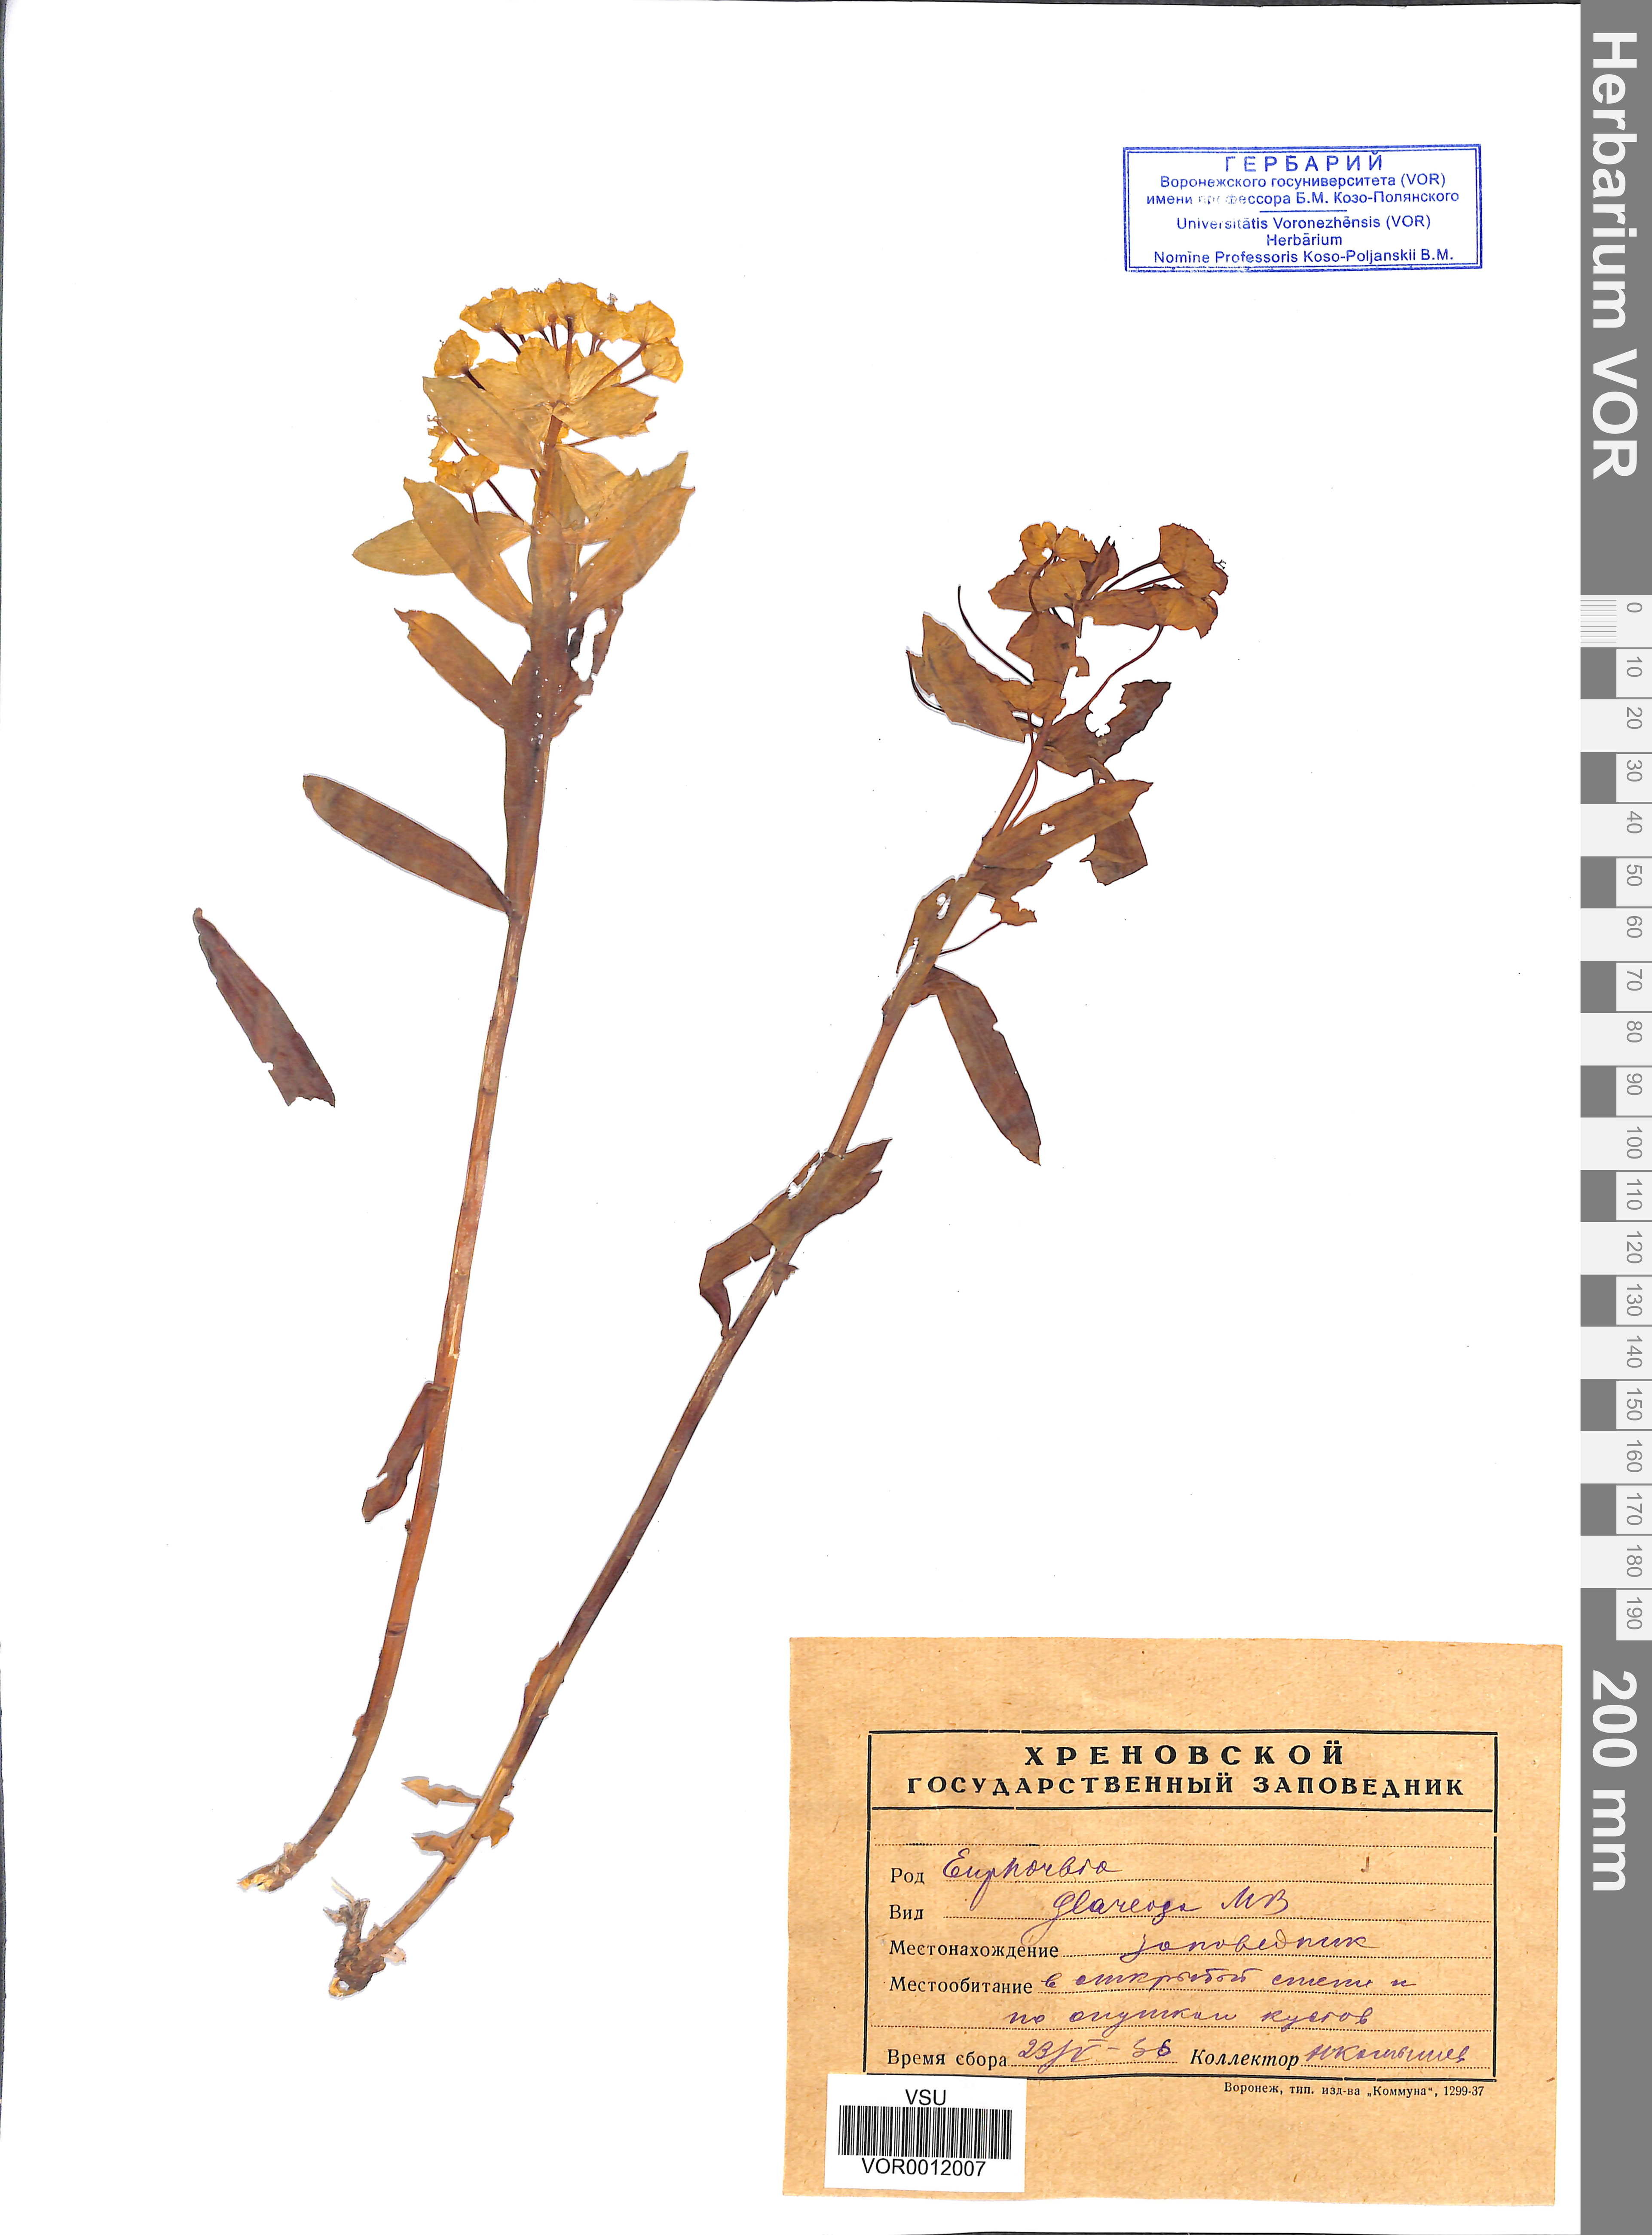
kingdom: Plantae
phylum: Tracheophyta
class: Magnoliopsida
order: Malpighiales
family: Euphorbiaceae
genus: Euphorbia
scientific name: Euphorbia stepposa
